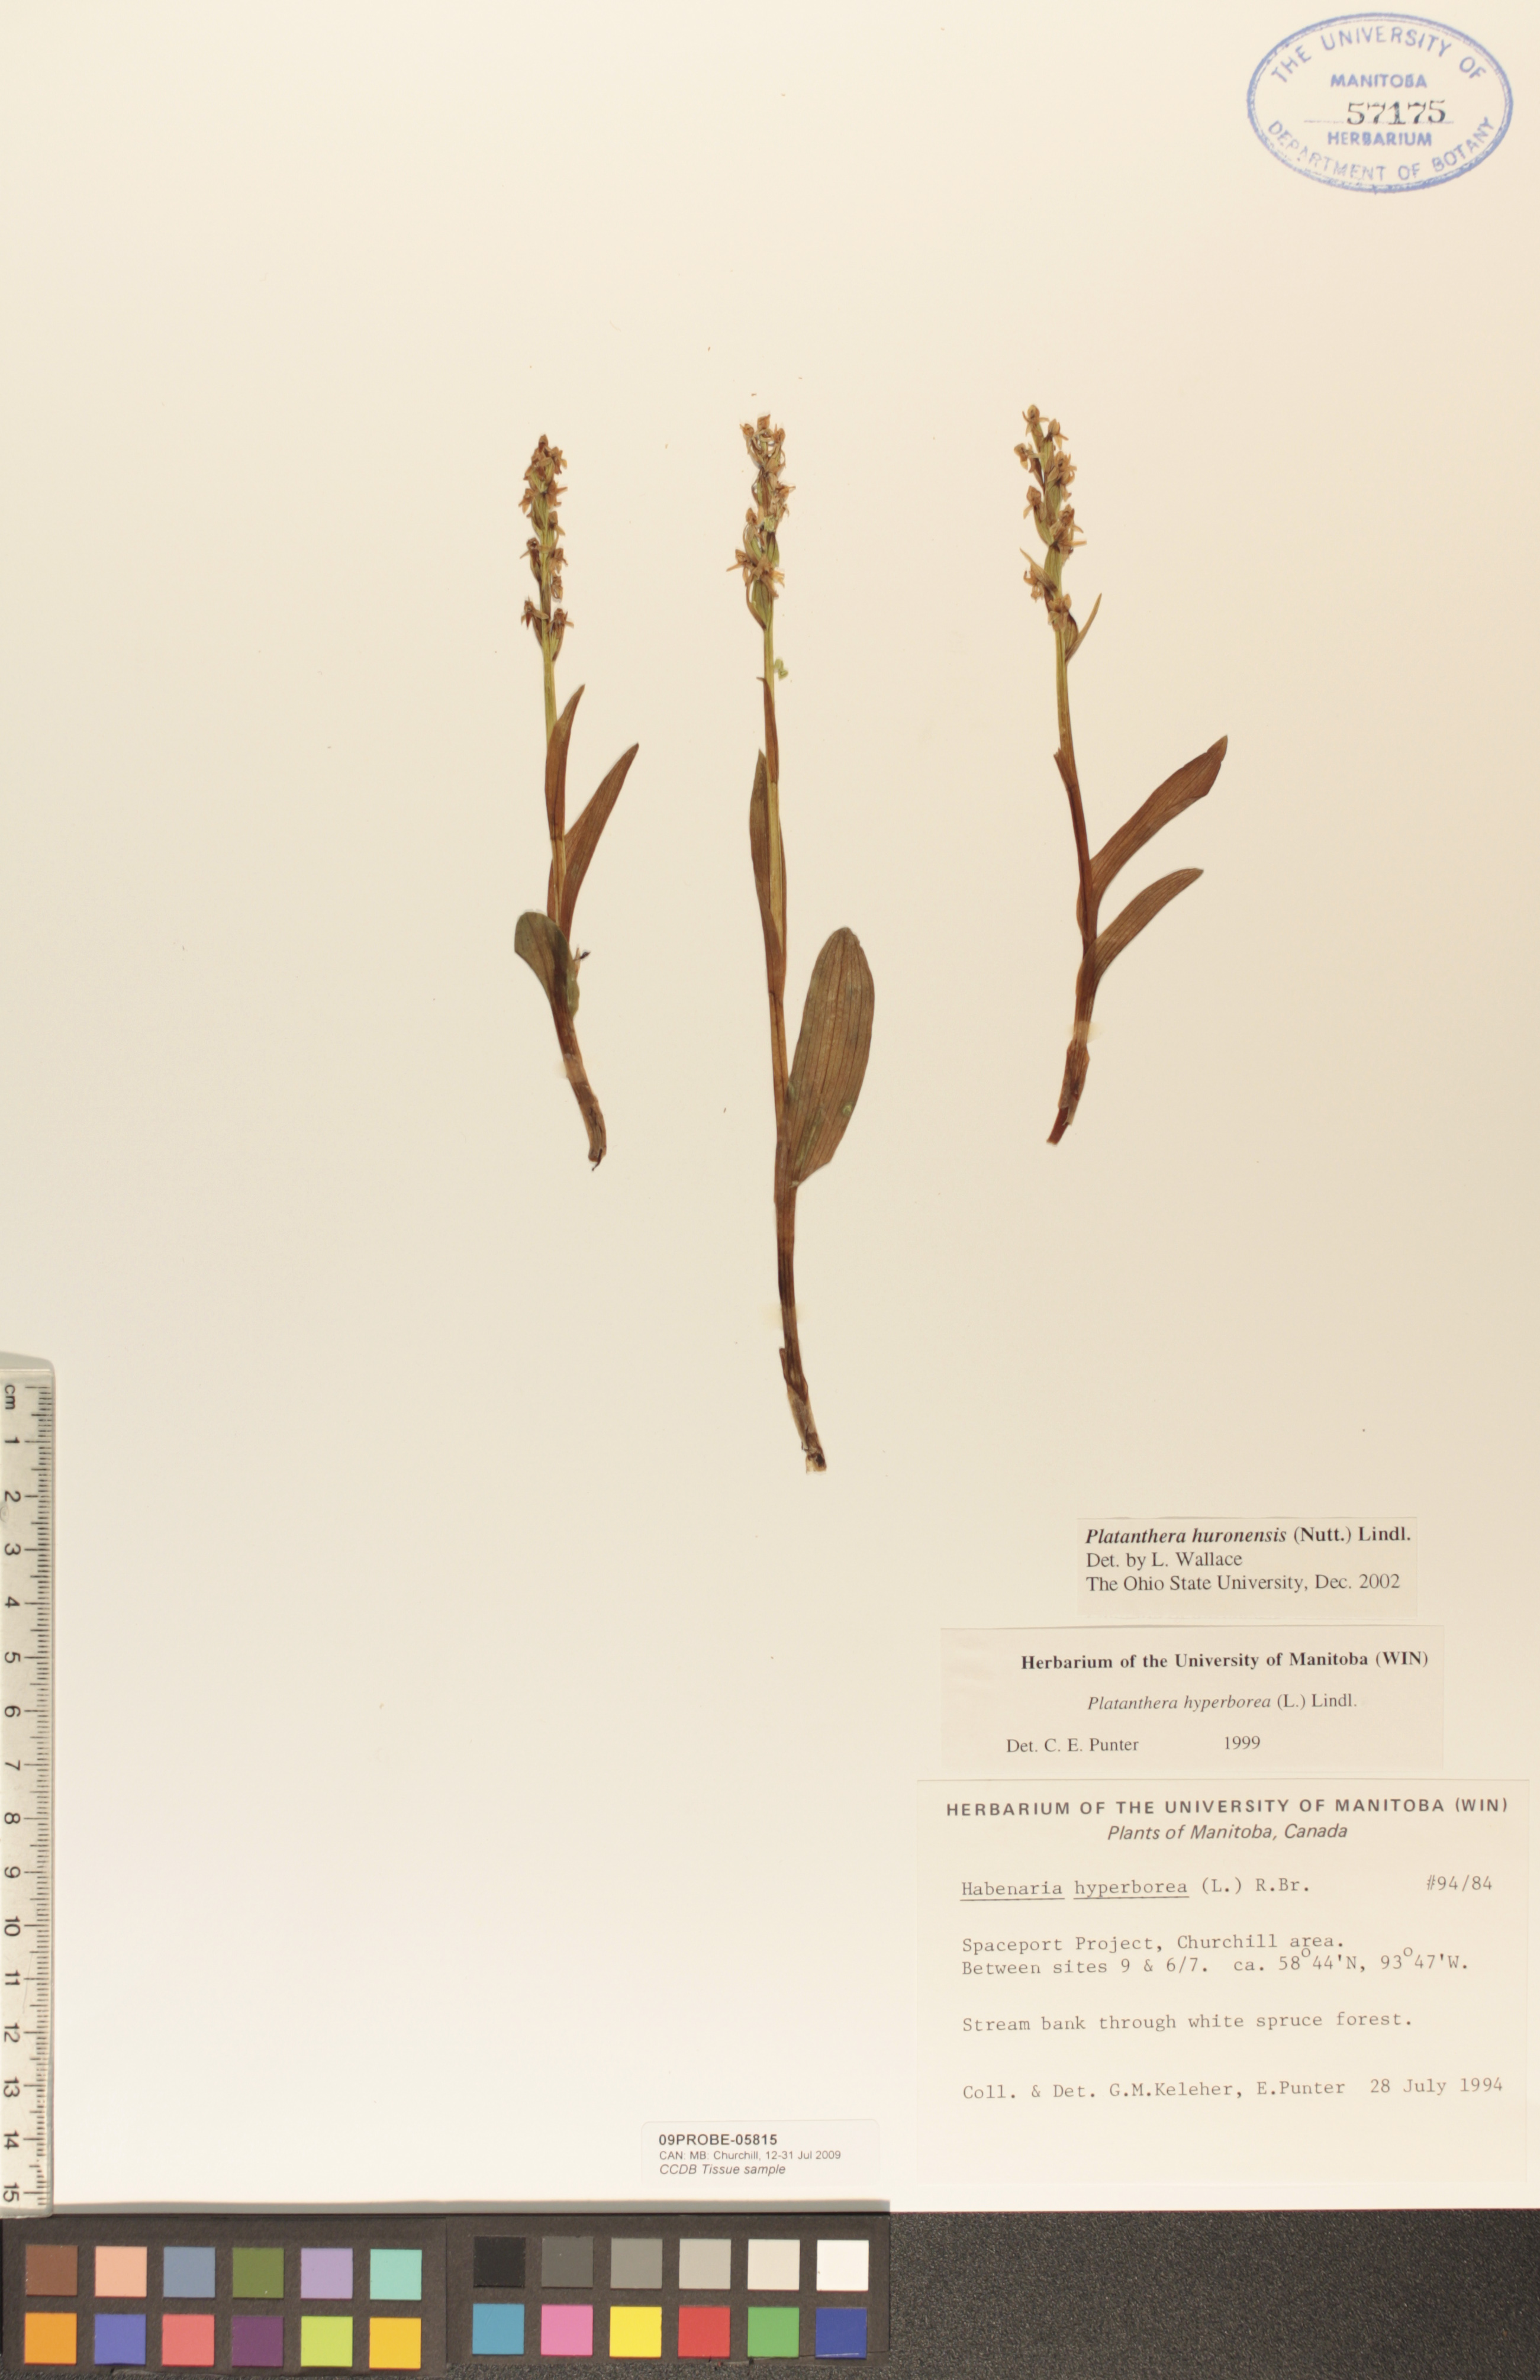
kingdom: Plantae
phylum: Tracheophyta
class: Liliopsida
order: Asparagales
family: Orchidaceae
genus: Platanthera
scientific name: Platanthera huronensis
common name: Fragrant green orchid
